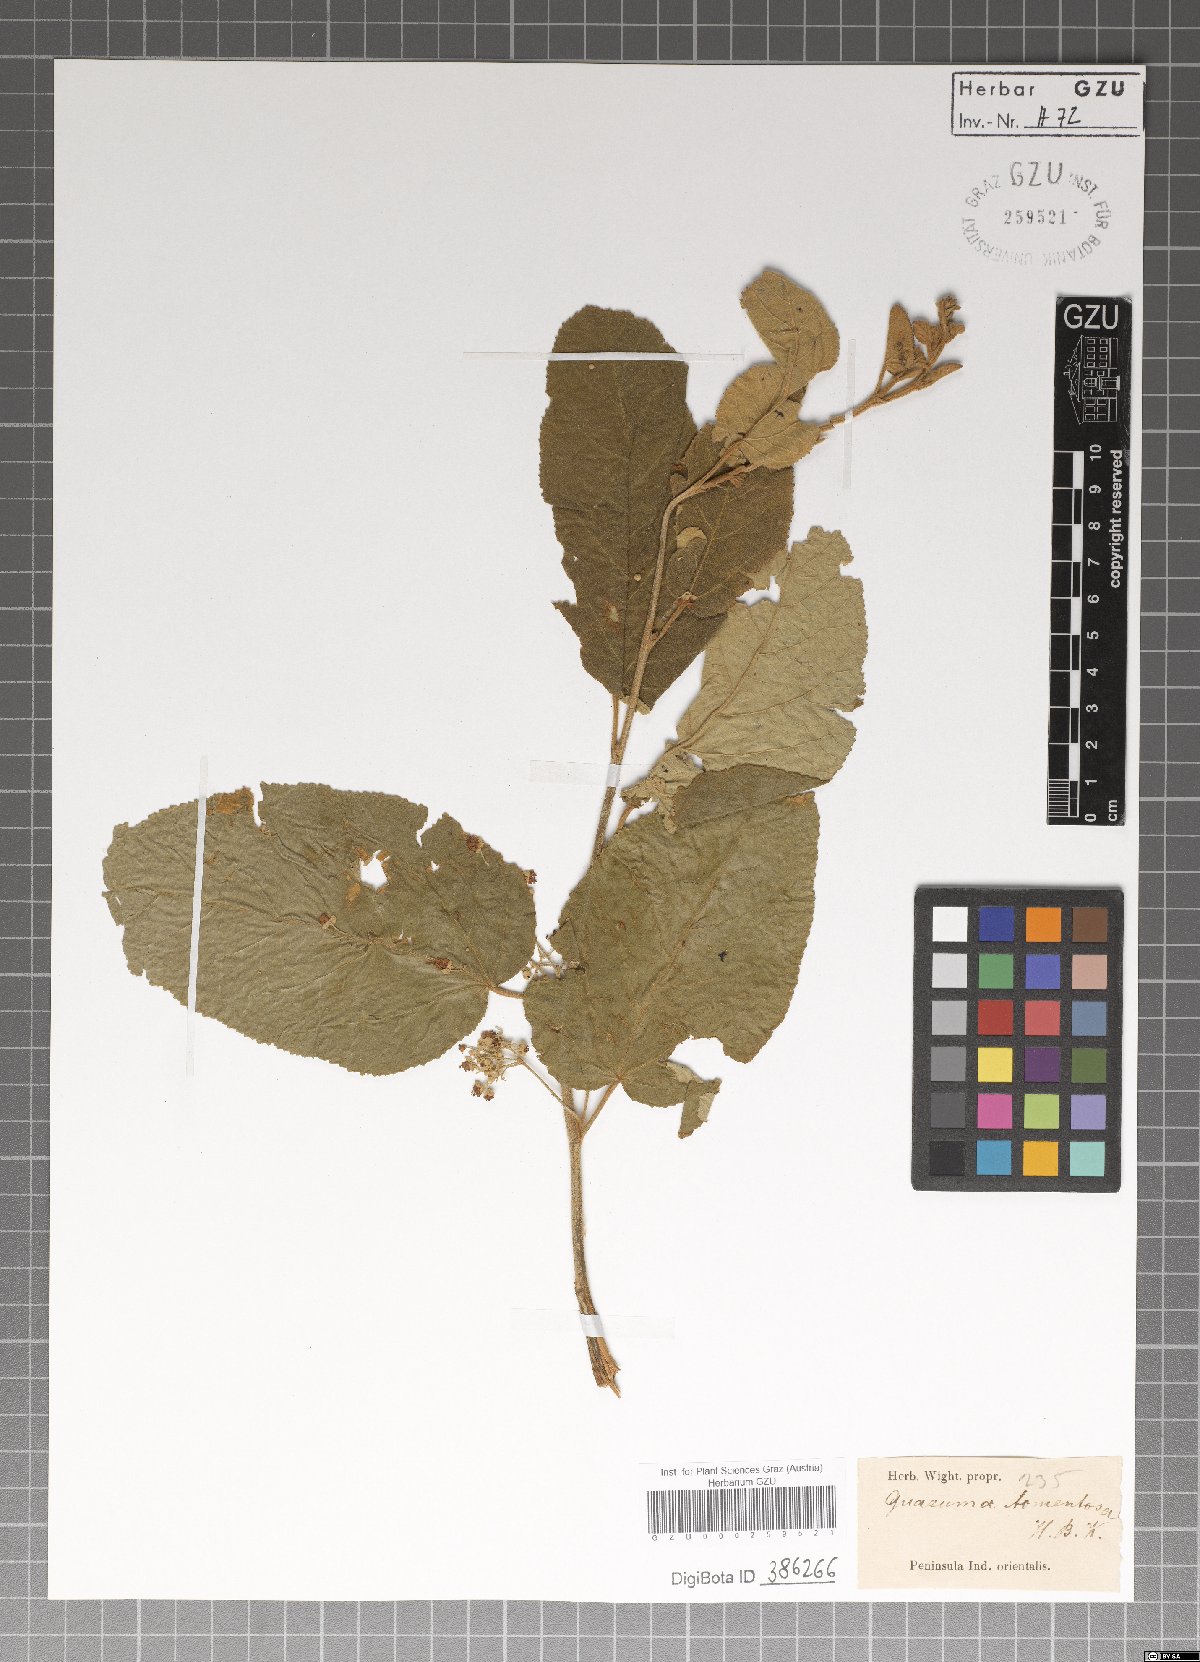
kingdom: Plantae
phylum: Tracheophyta
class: Magnoliopsida
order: Malvales
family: Malvaceae
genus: Guazuma
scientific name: Guazuma
